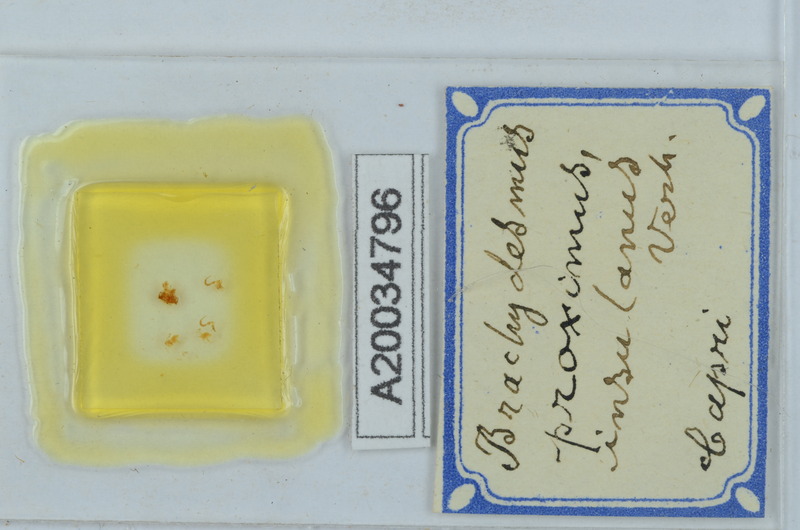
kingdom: Animalia
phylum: Arthropoda
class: Diplopoda
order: Polydesmida
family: Polydesmidae
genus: Brachydesmus
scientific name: Brachydesmus proximus
